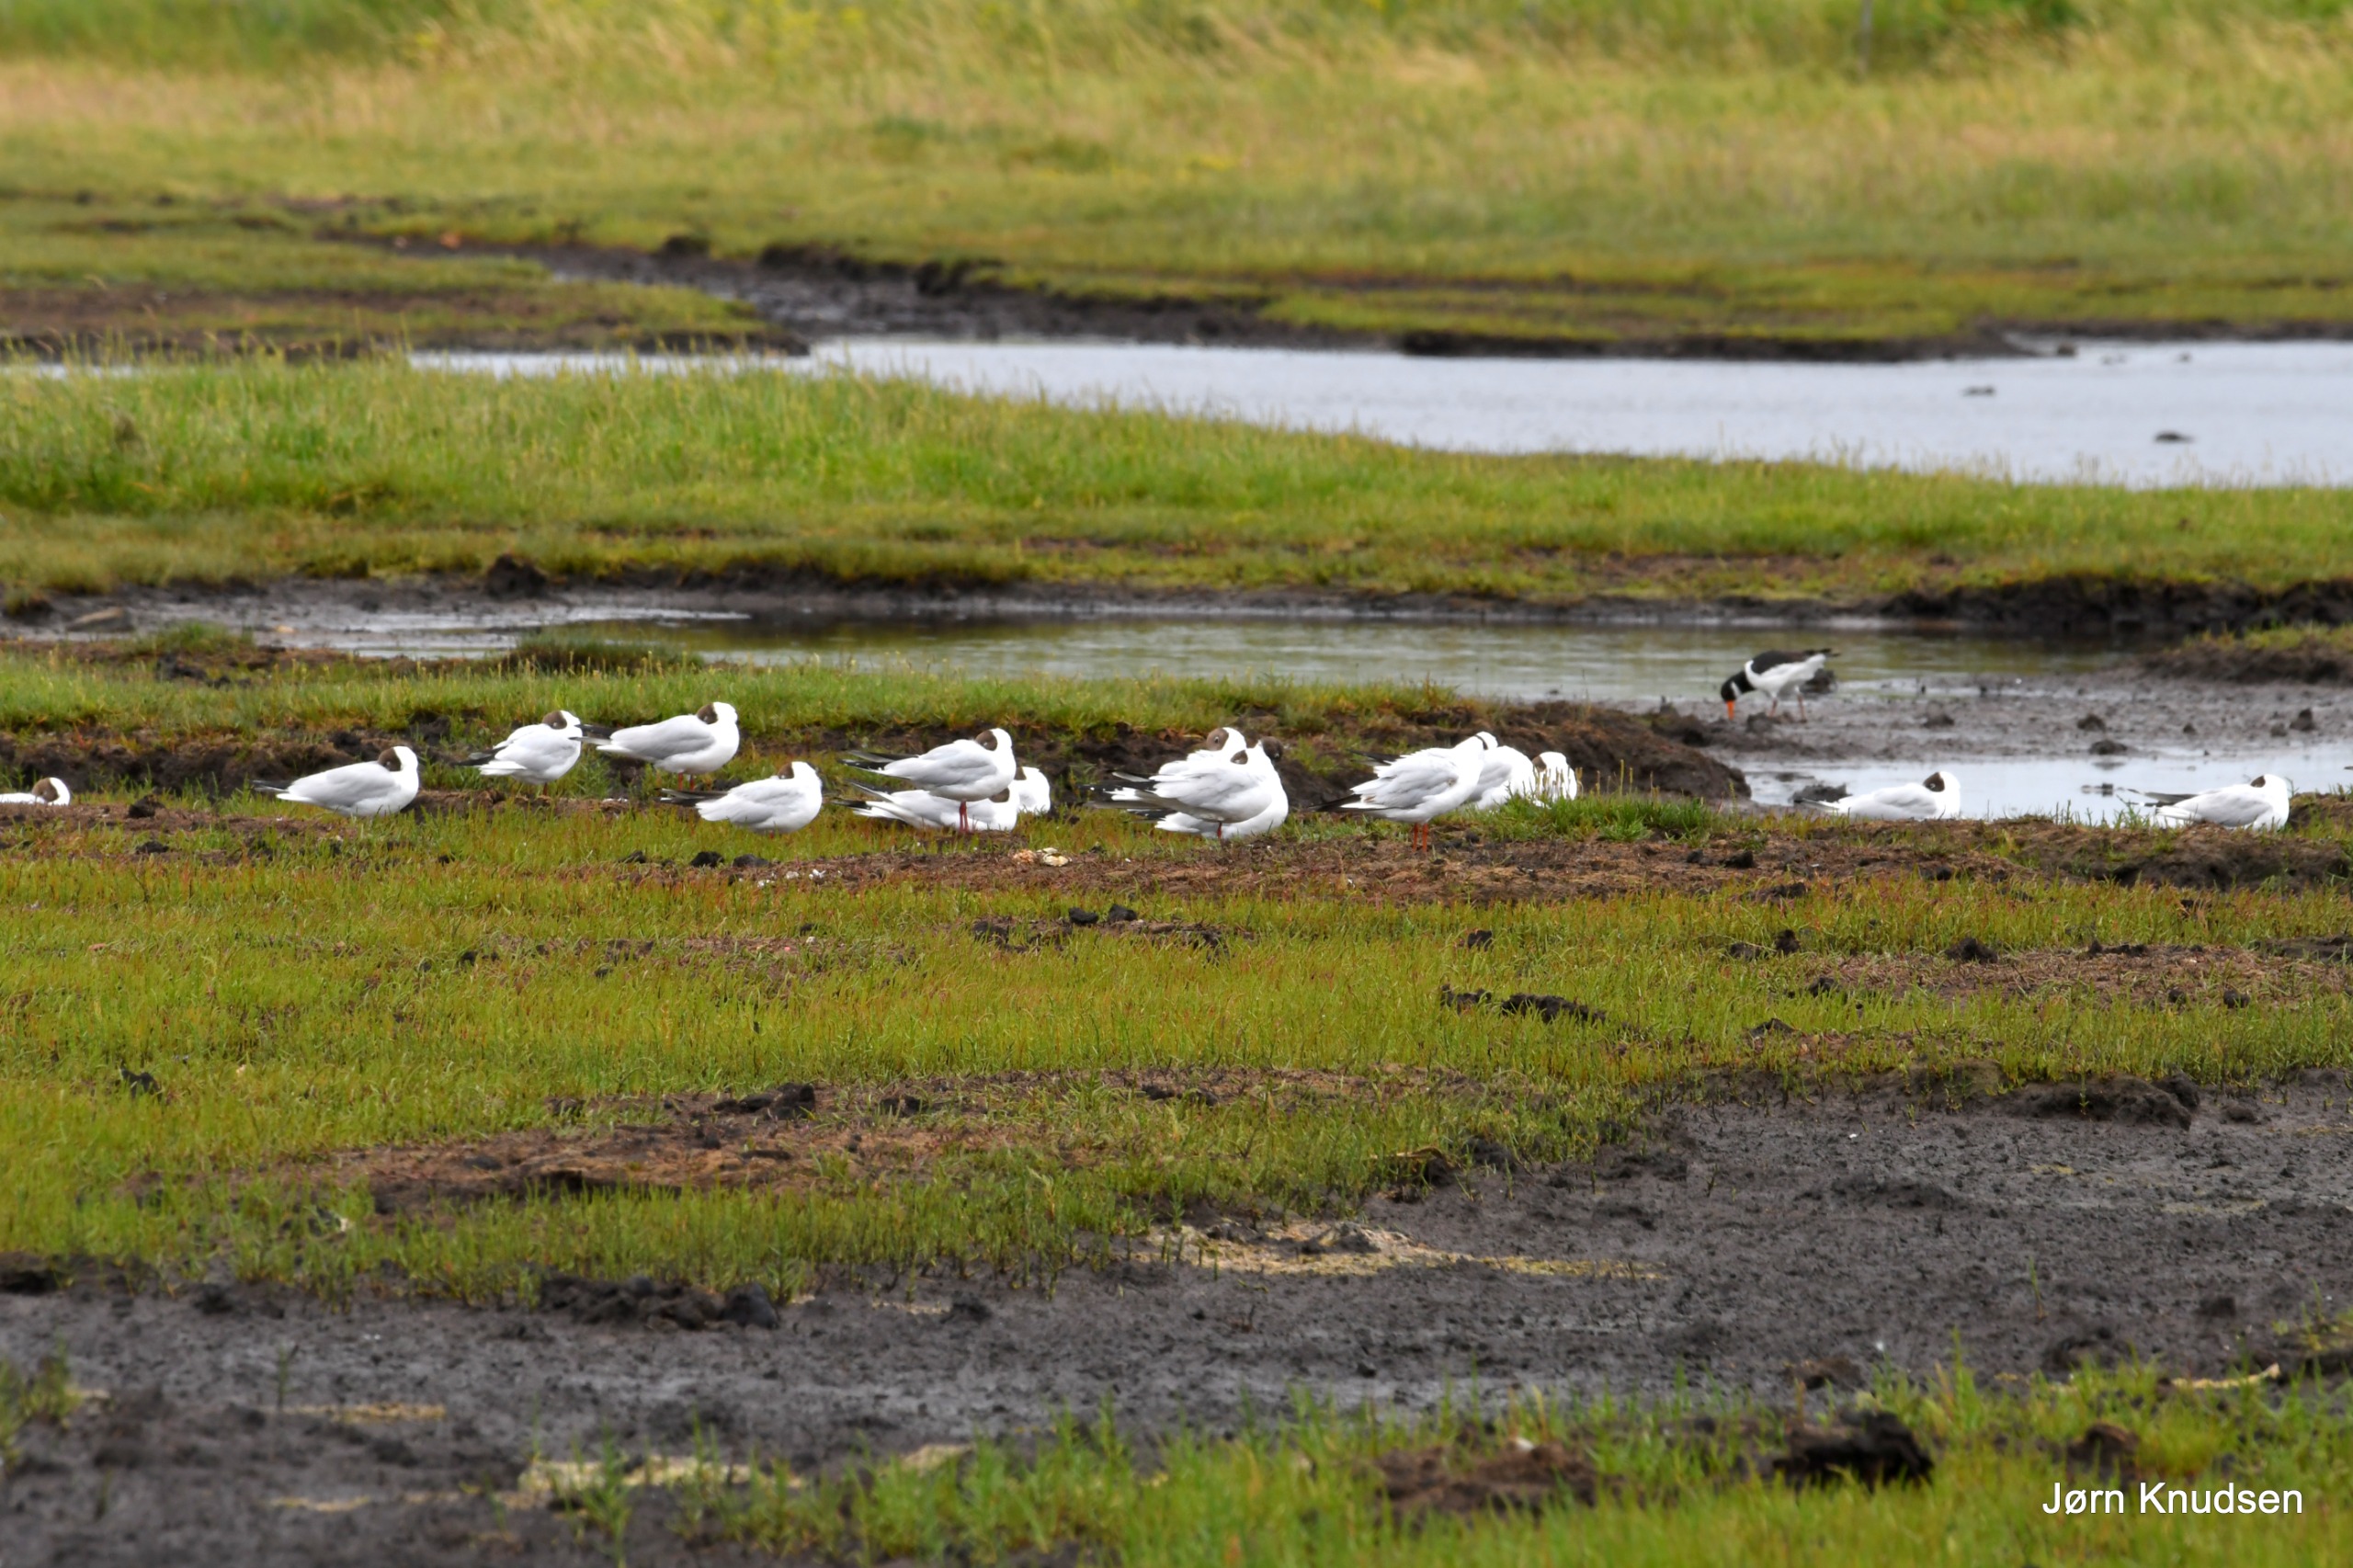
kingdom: Animalia
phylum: Chordata
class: Aves
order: Charadriiformes
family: Laridae
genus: Chroicocephalus
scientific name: Chroicocephalus ridibundus
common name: Hættemåge
